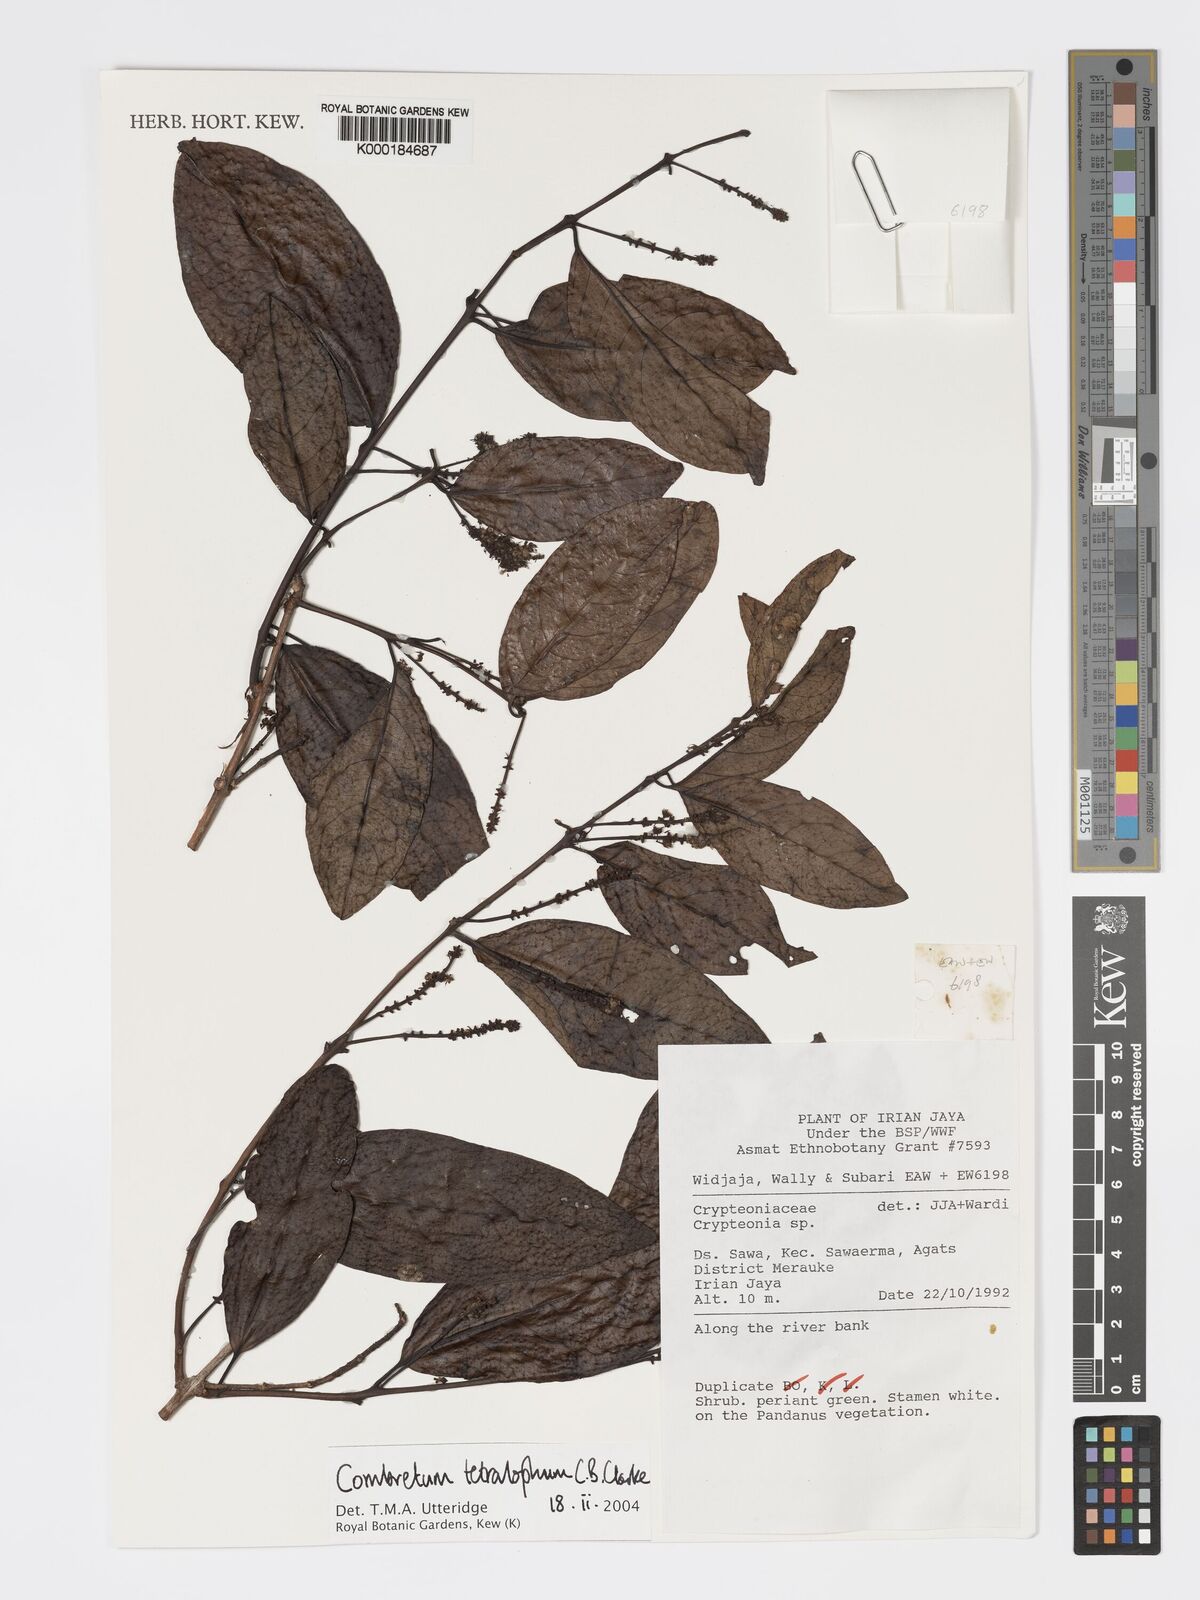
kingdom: Plantae
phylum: Tracheophyta
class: Magnoliopsida
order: Myrtales
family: Combretaceae
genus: Combretum
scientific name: Combretum tetralophum
